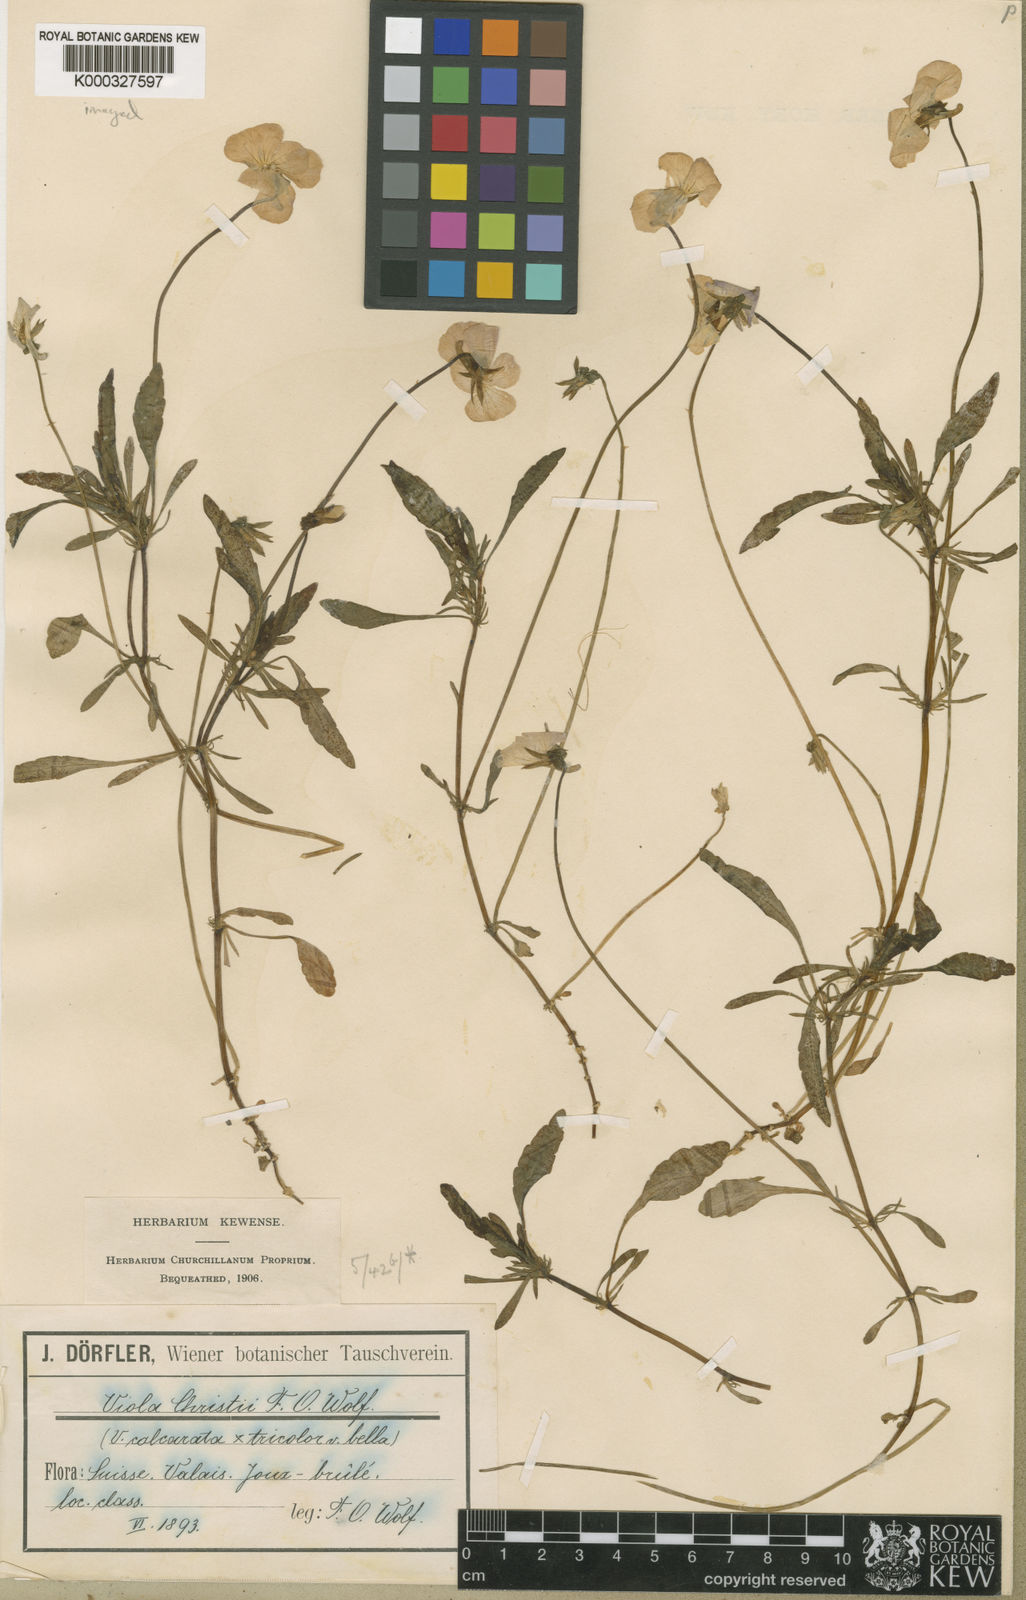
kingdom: Plantae
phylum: Tracheophyta
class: Magnoliopsida
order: Malpighiales
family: Violaceae
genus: Viola
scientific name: Viola calcarata
